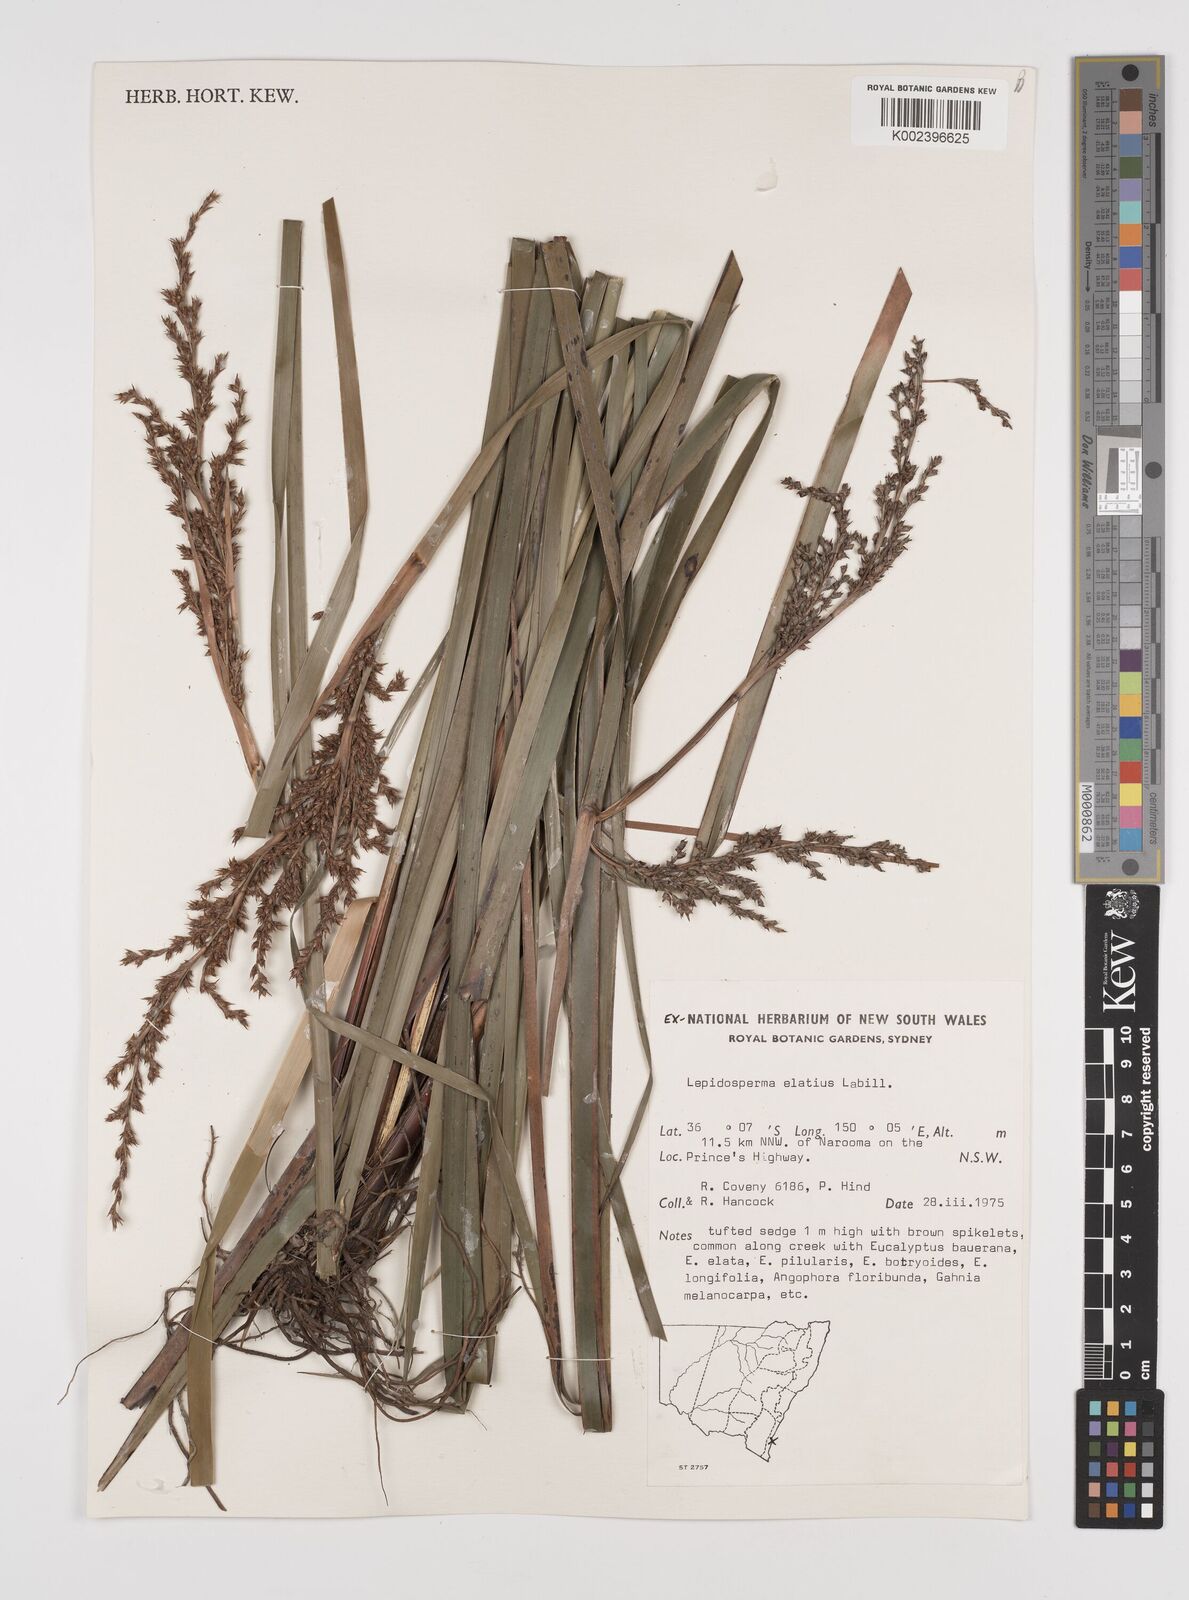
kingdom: Plantae
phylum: Tracheophyta
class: Liliopsida
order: Poales
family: Cyperaceae
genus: Lepidosperma
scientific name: Lepidosperma elatius
